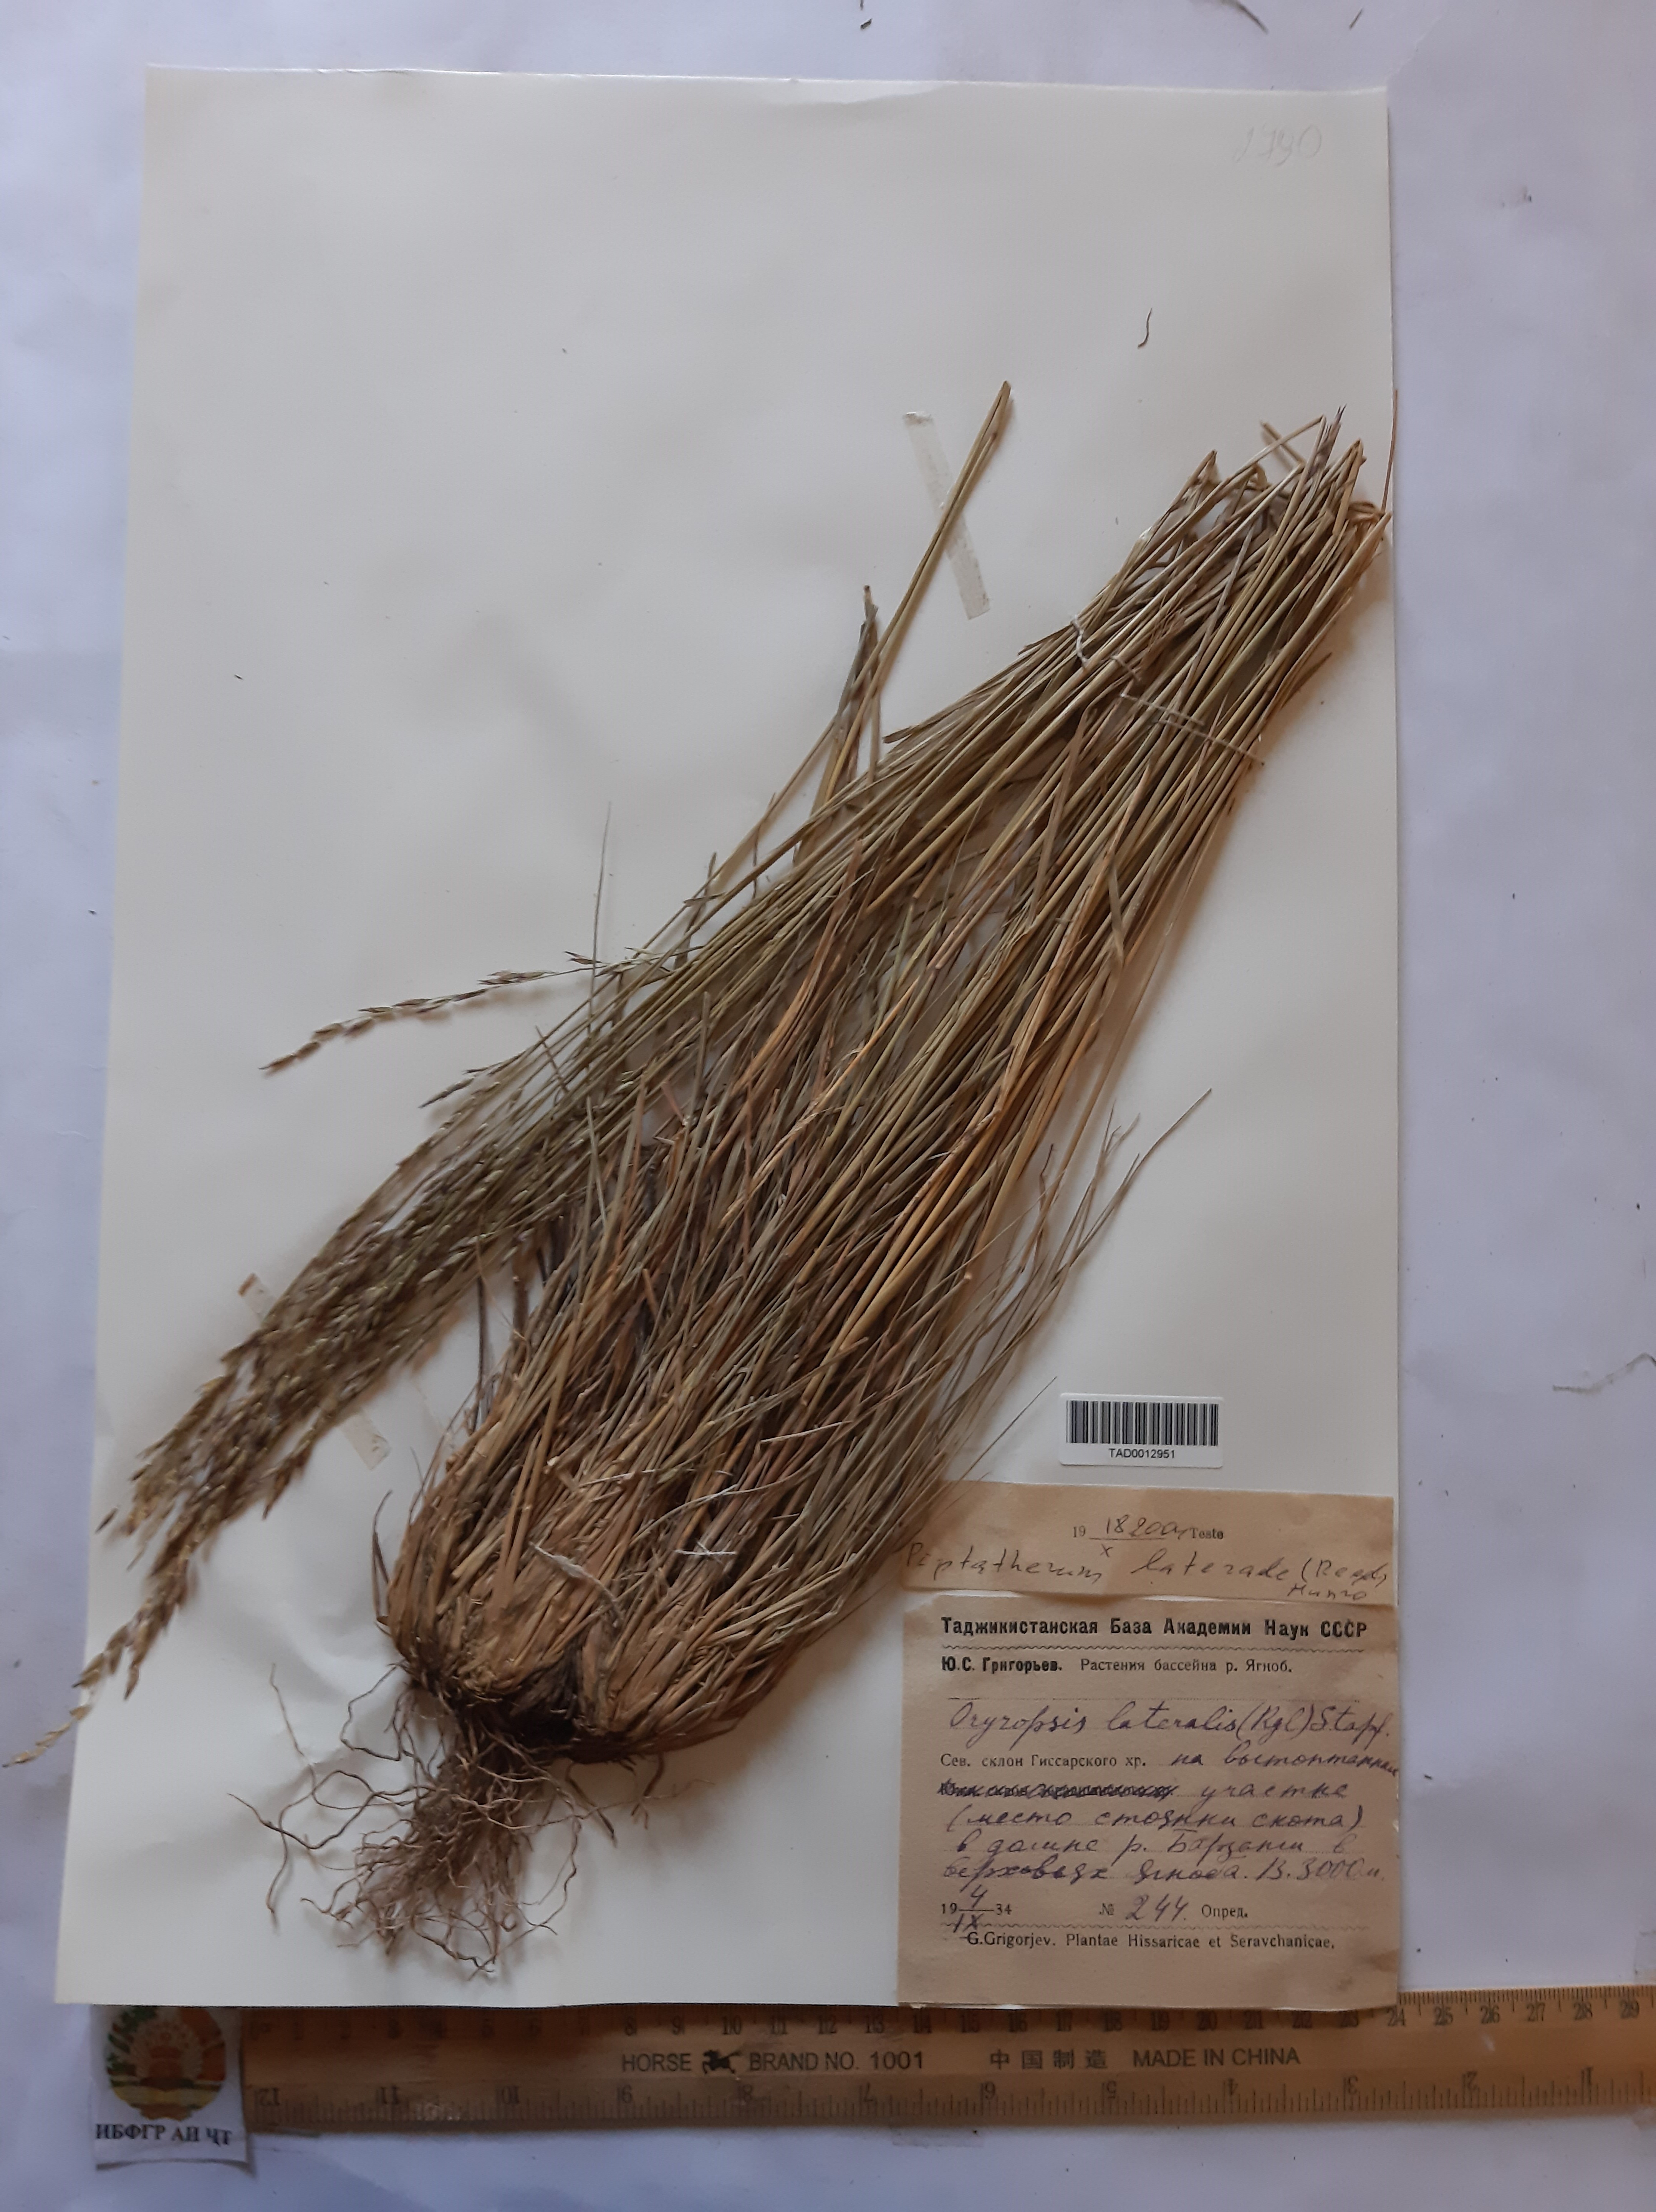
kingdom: Plantae
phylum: Tracheophyta
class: Liliopsida
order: Poales
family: Poaceae
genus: Piptatherum
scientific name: Piptatherum laterale
